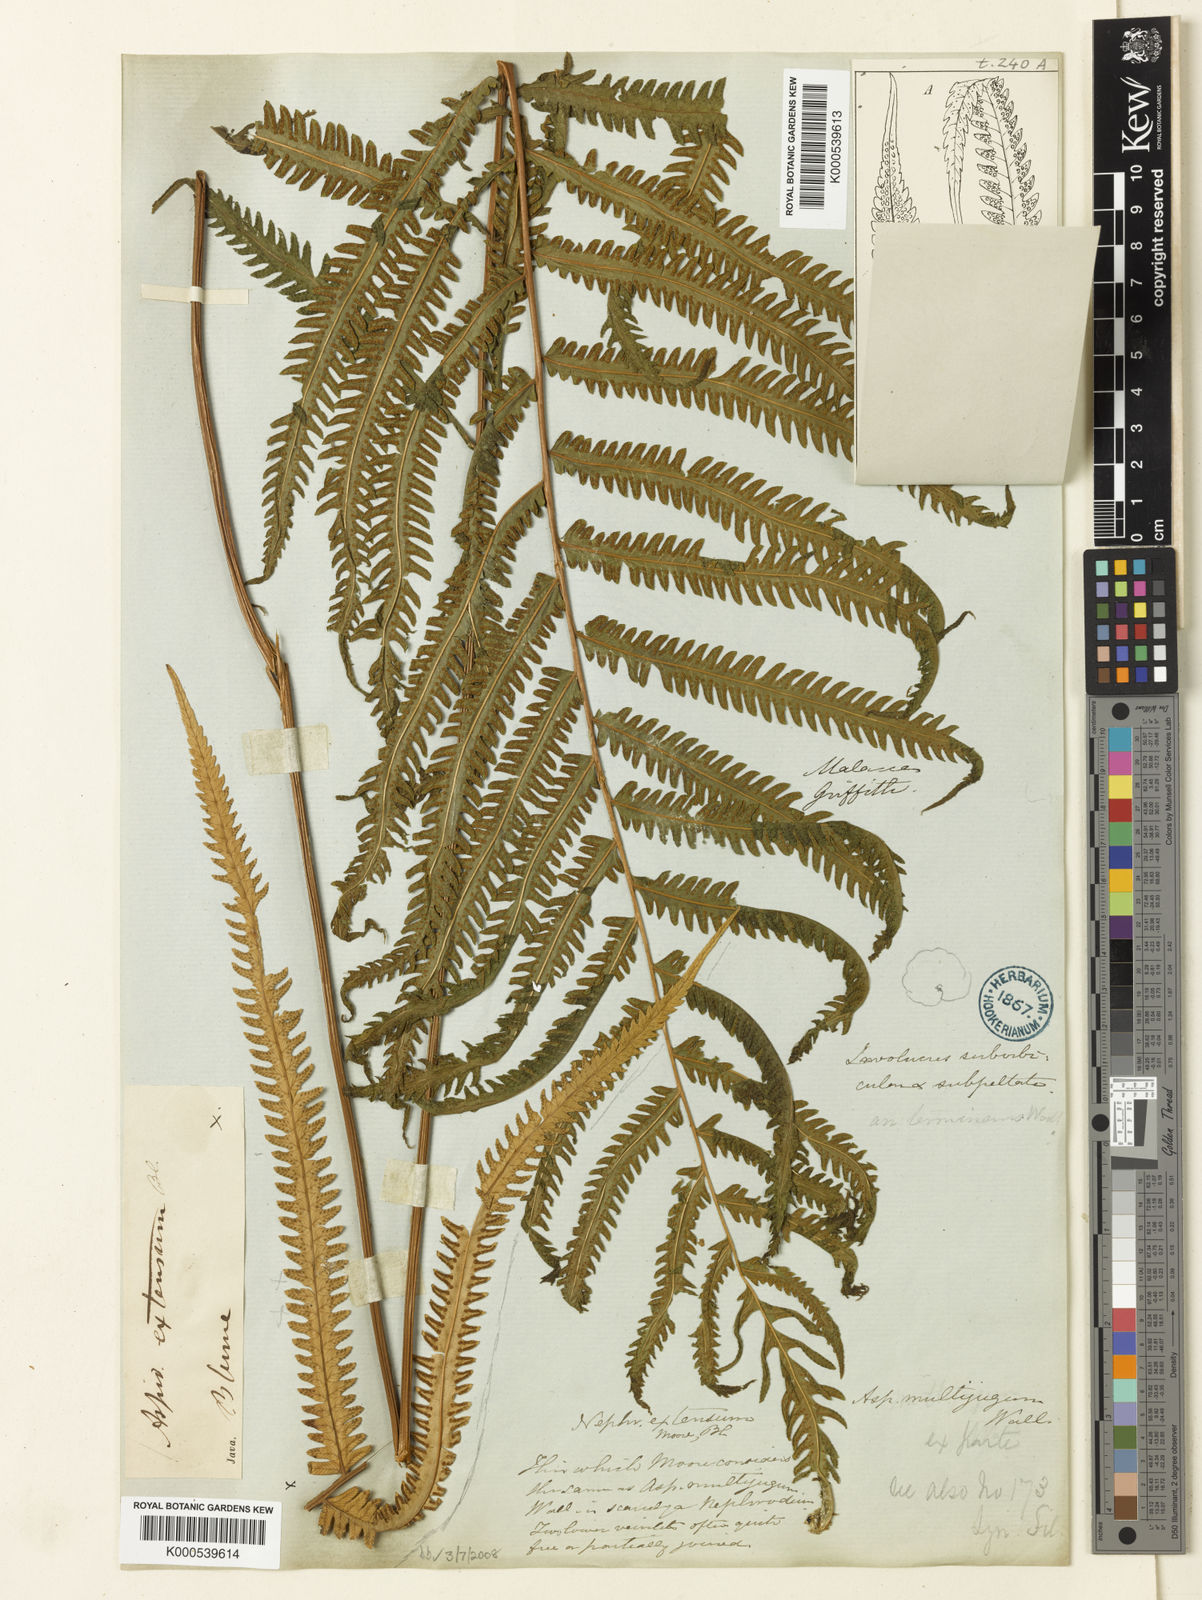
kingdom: Plantae
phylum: Tracheophyta
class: Polypodiopsida
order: Polypodiales
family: Thelypteridaceae
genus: Amblovenatum
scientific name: Amblovenatum opulentum
